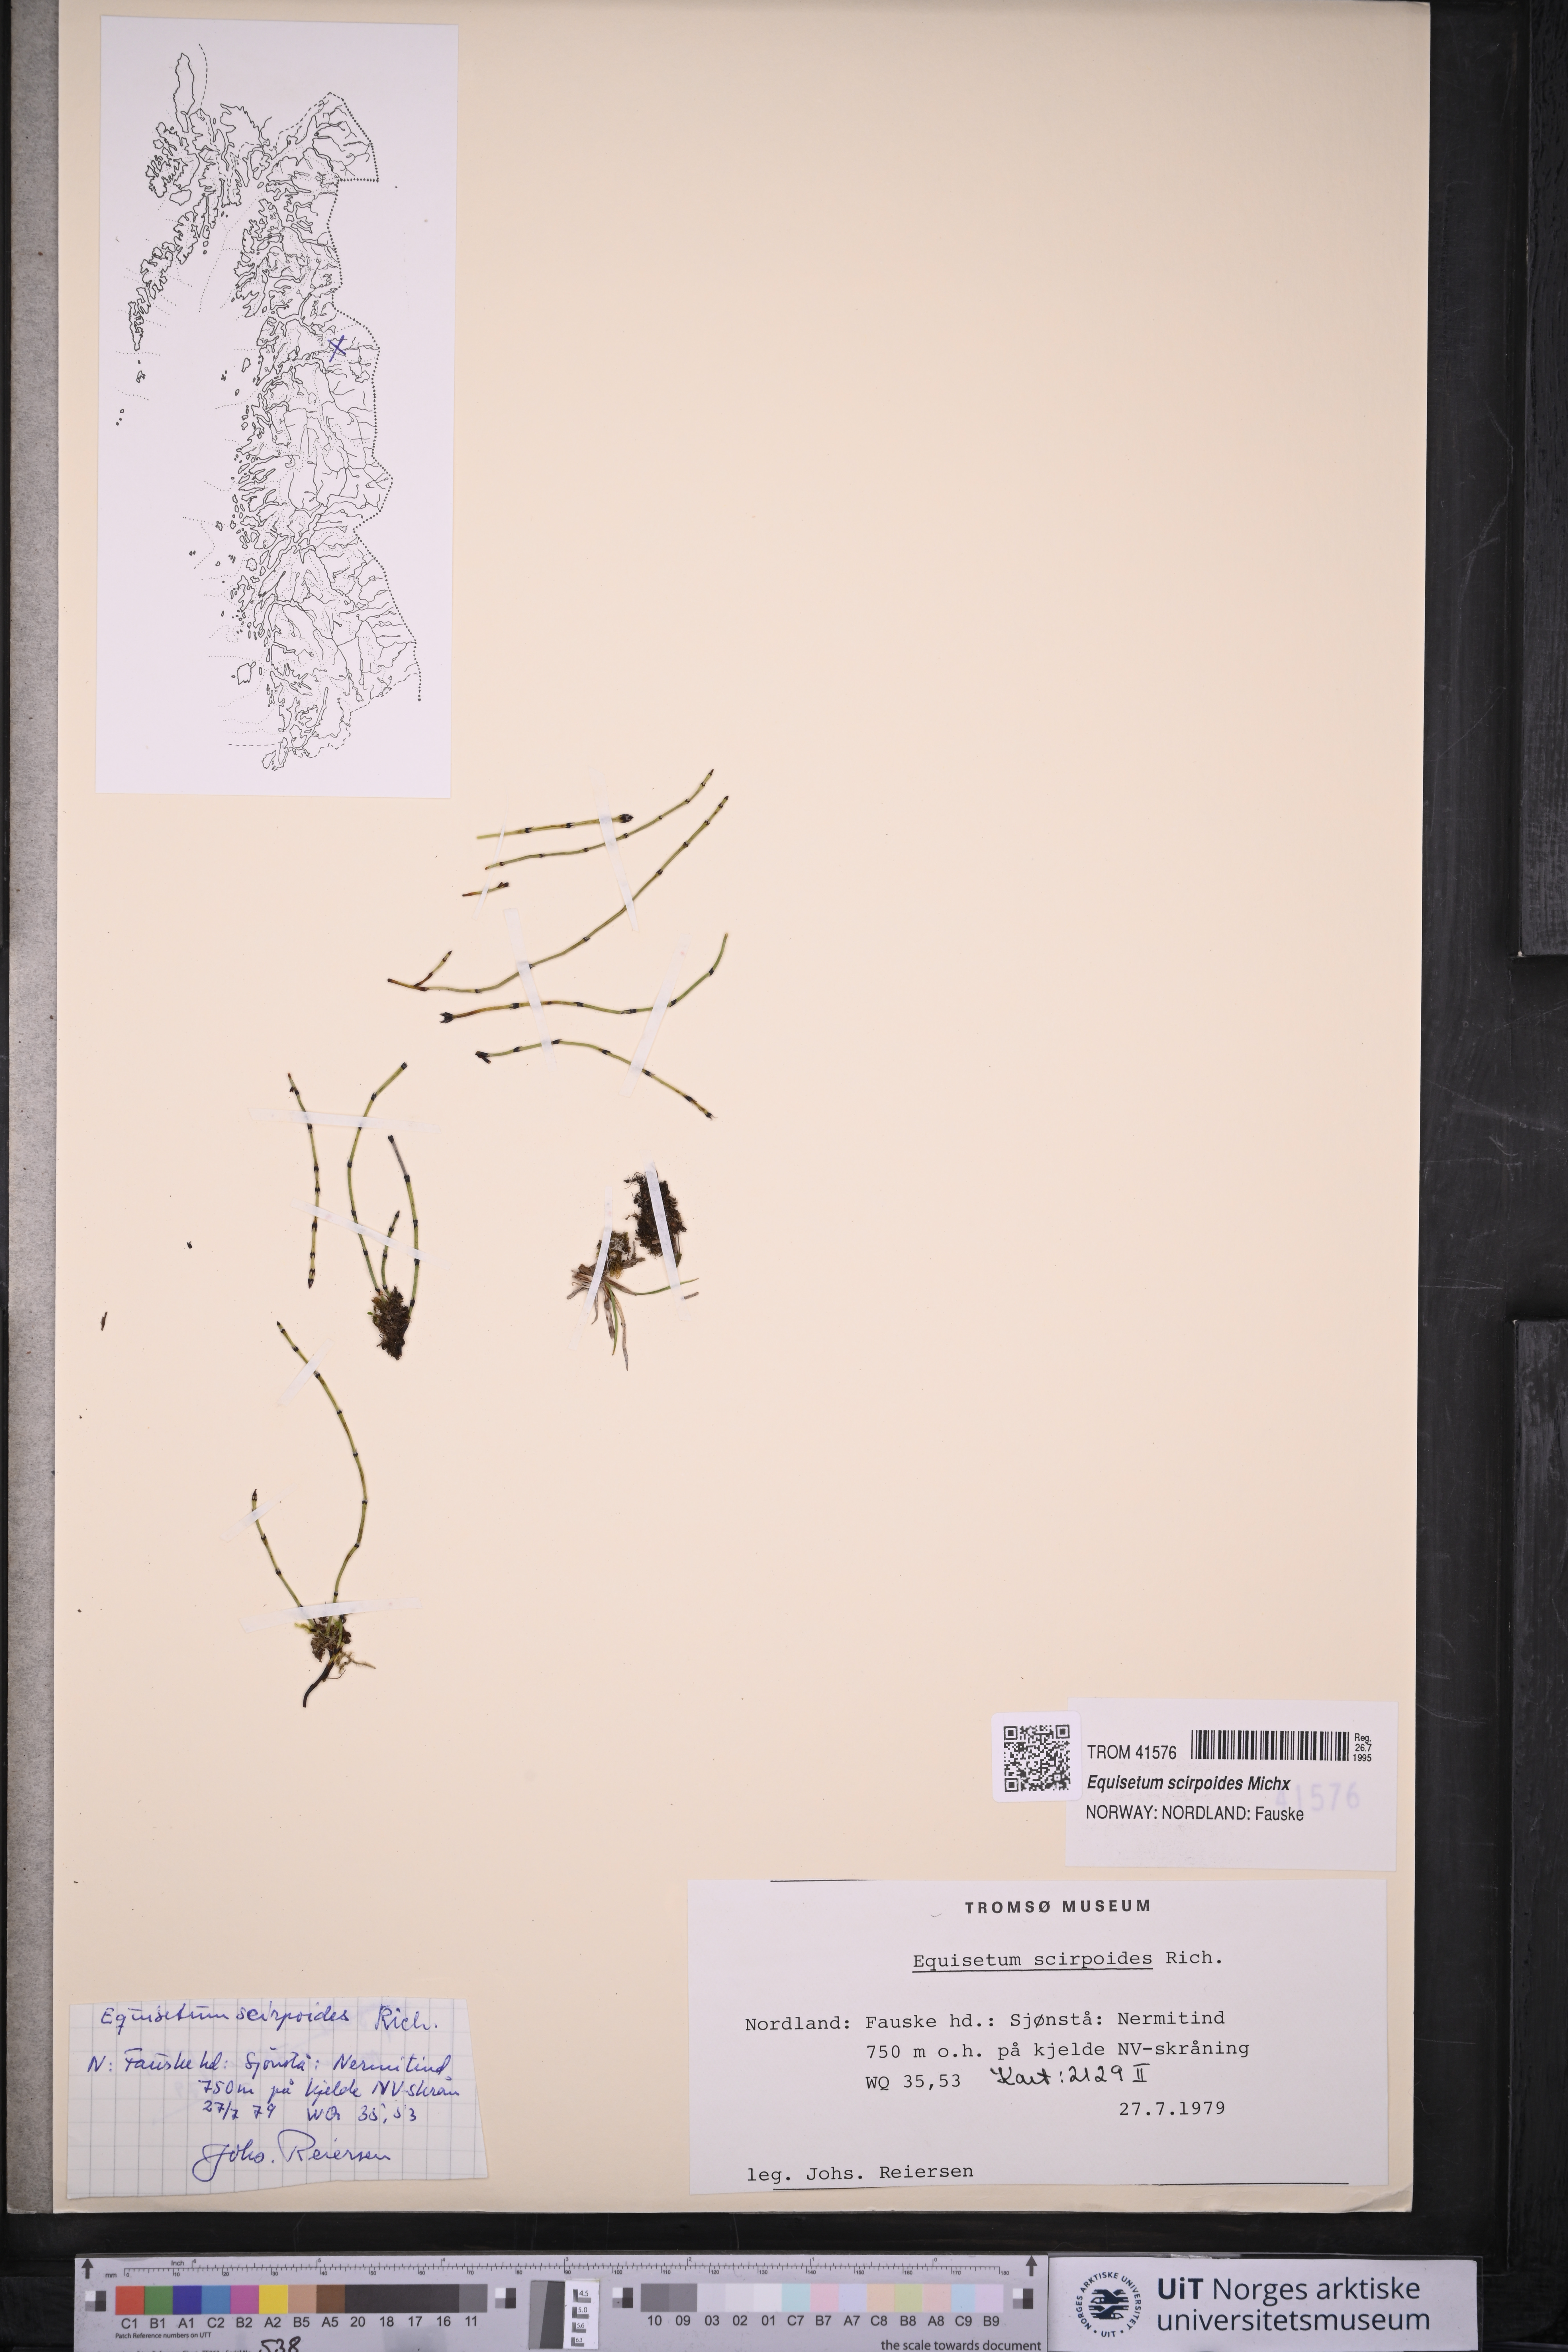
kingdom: Plantae
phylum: Tracheophyta
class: Polypodiopsida
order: Equisetales
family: Equisetaceae
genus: Equisetum
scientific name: Equisetum scirpoides
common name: Delicate horsetail
